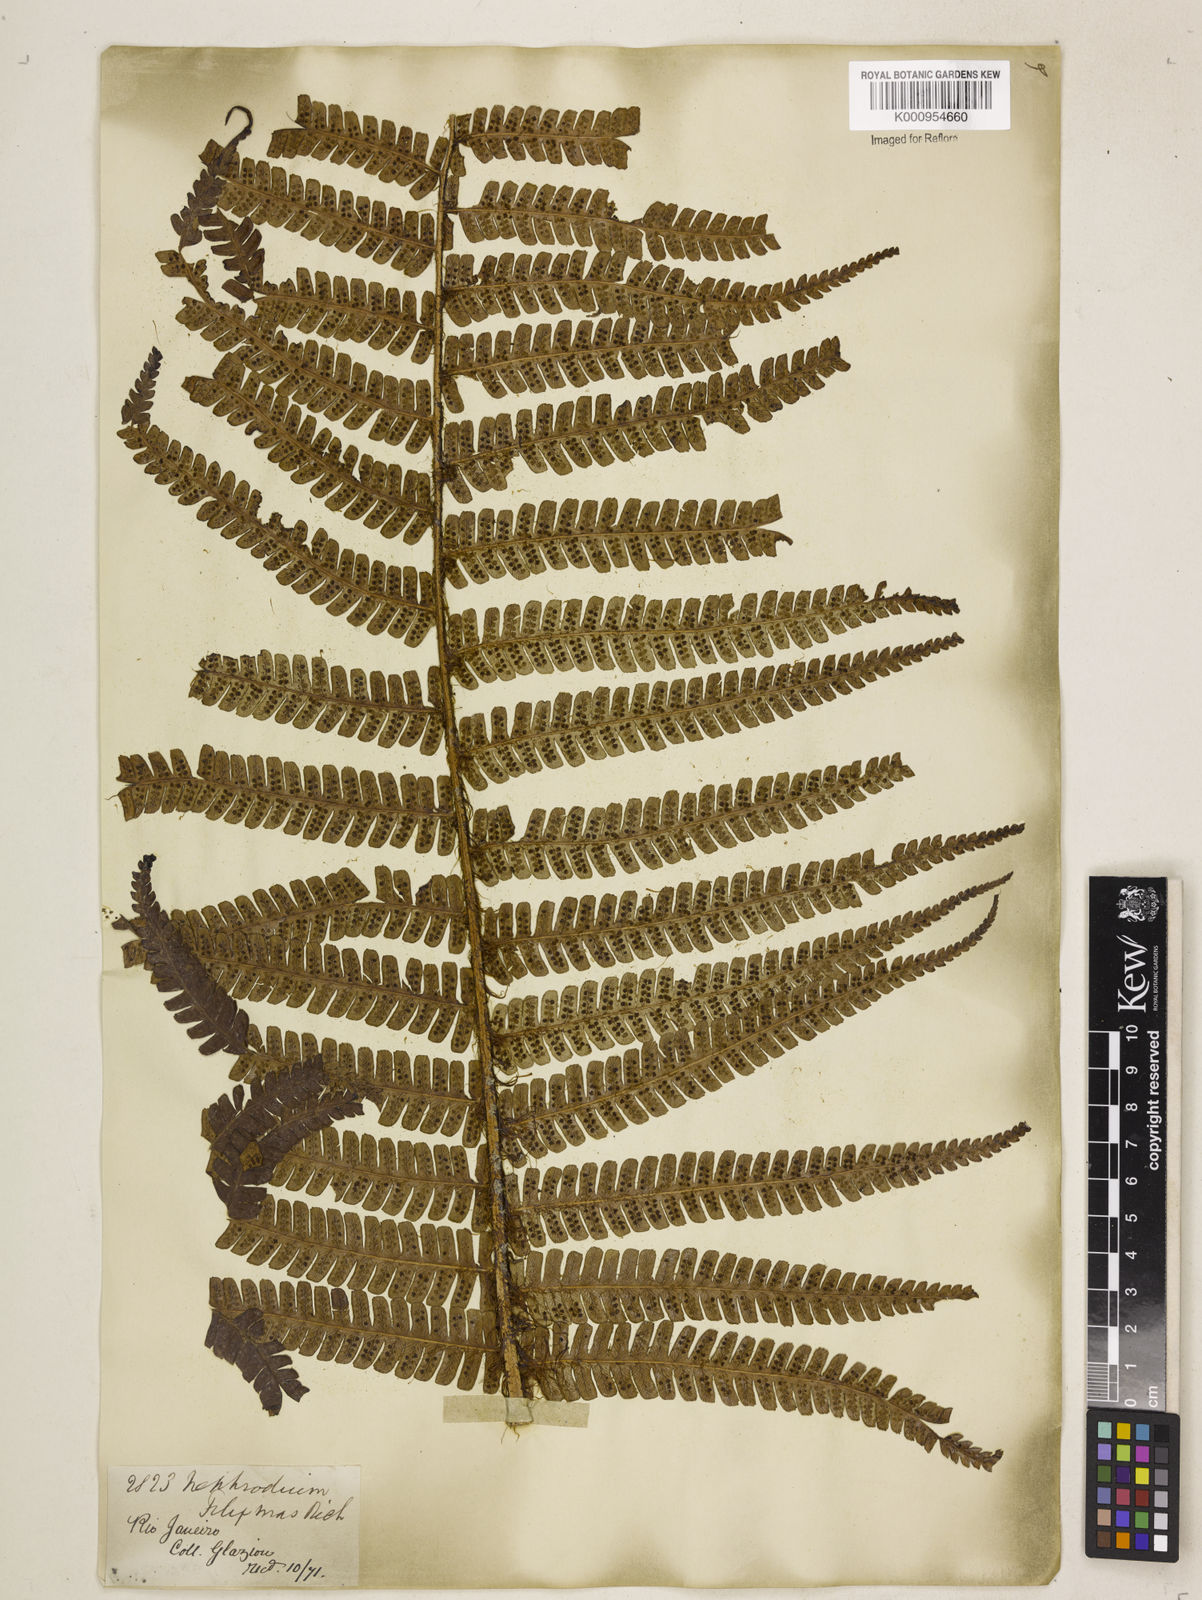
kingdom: Plantae
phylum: Tracheophyta
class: Polypodiopsida
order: Polypodiales
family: Dryopteridaceae
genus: Dryopteris
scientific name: Dryopteris
